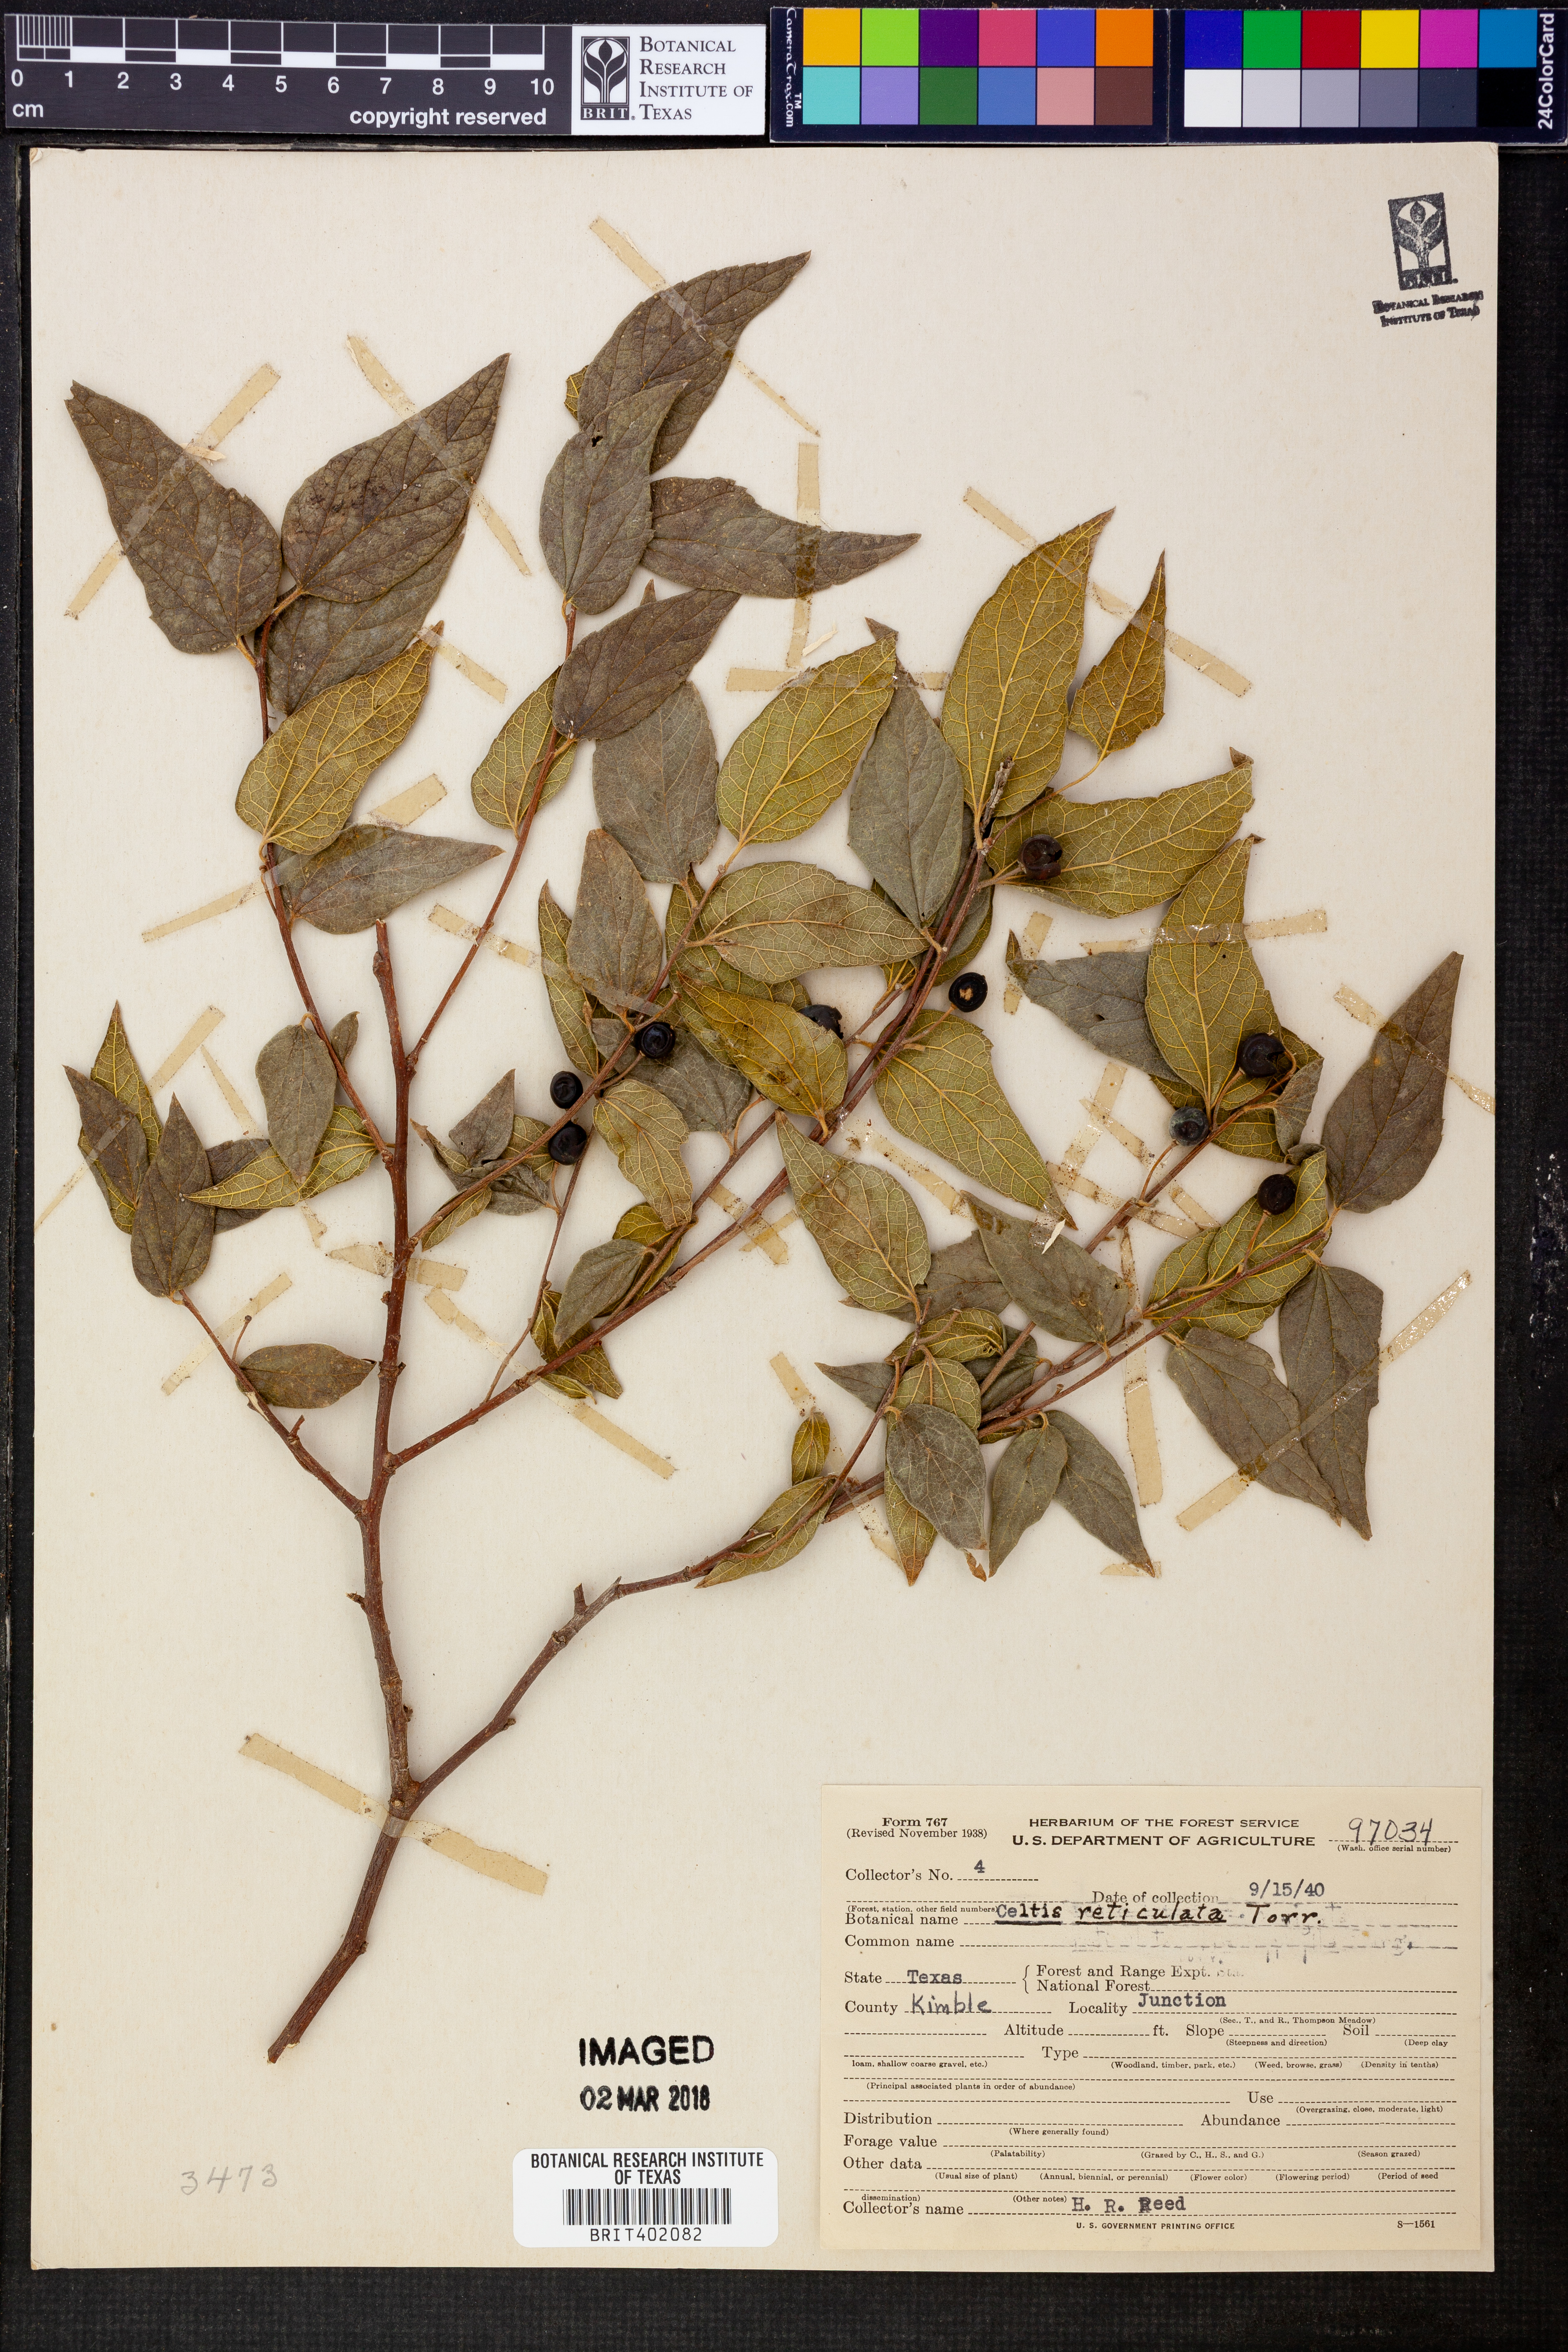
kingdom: Plantae
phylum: Tracheophyta
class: Magnoliopsida
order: Rosales
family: Cannabaceae
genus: Celtis
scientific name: Celtis reticulata
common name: Netleaf hackberry
